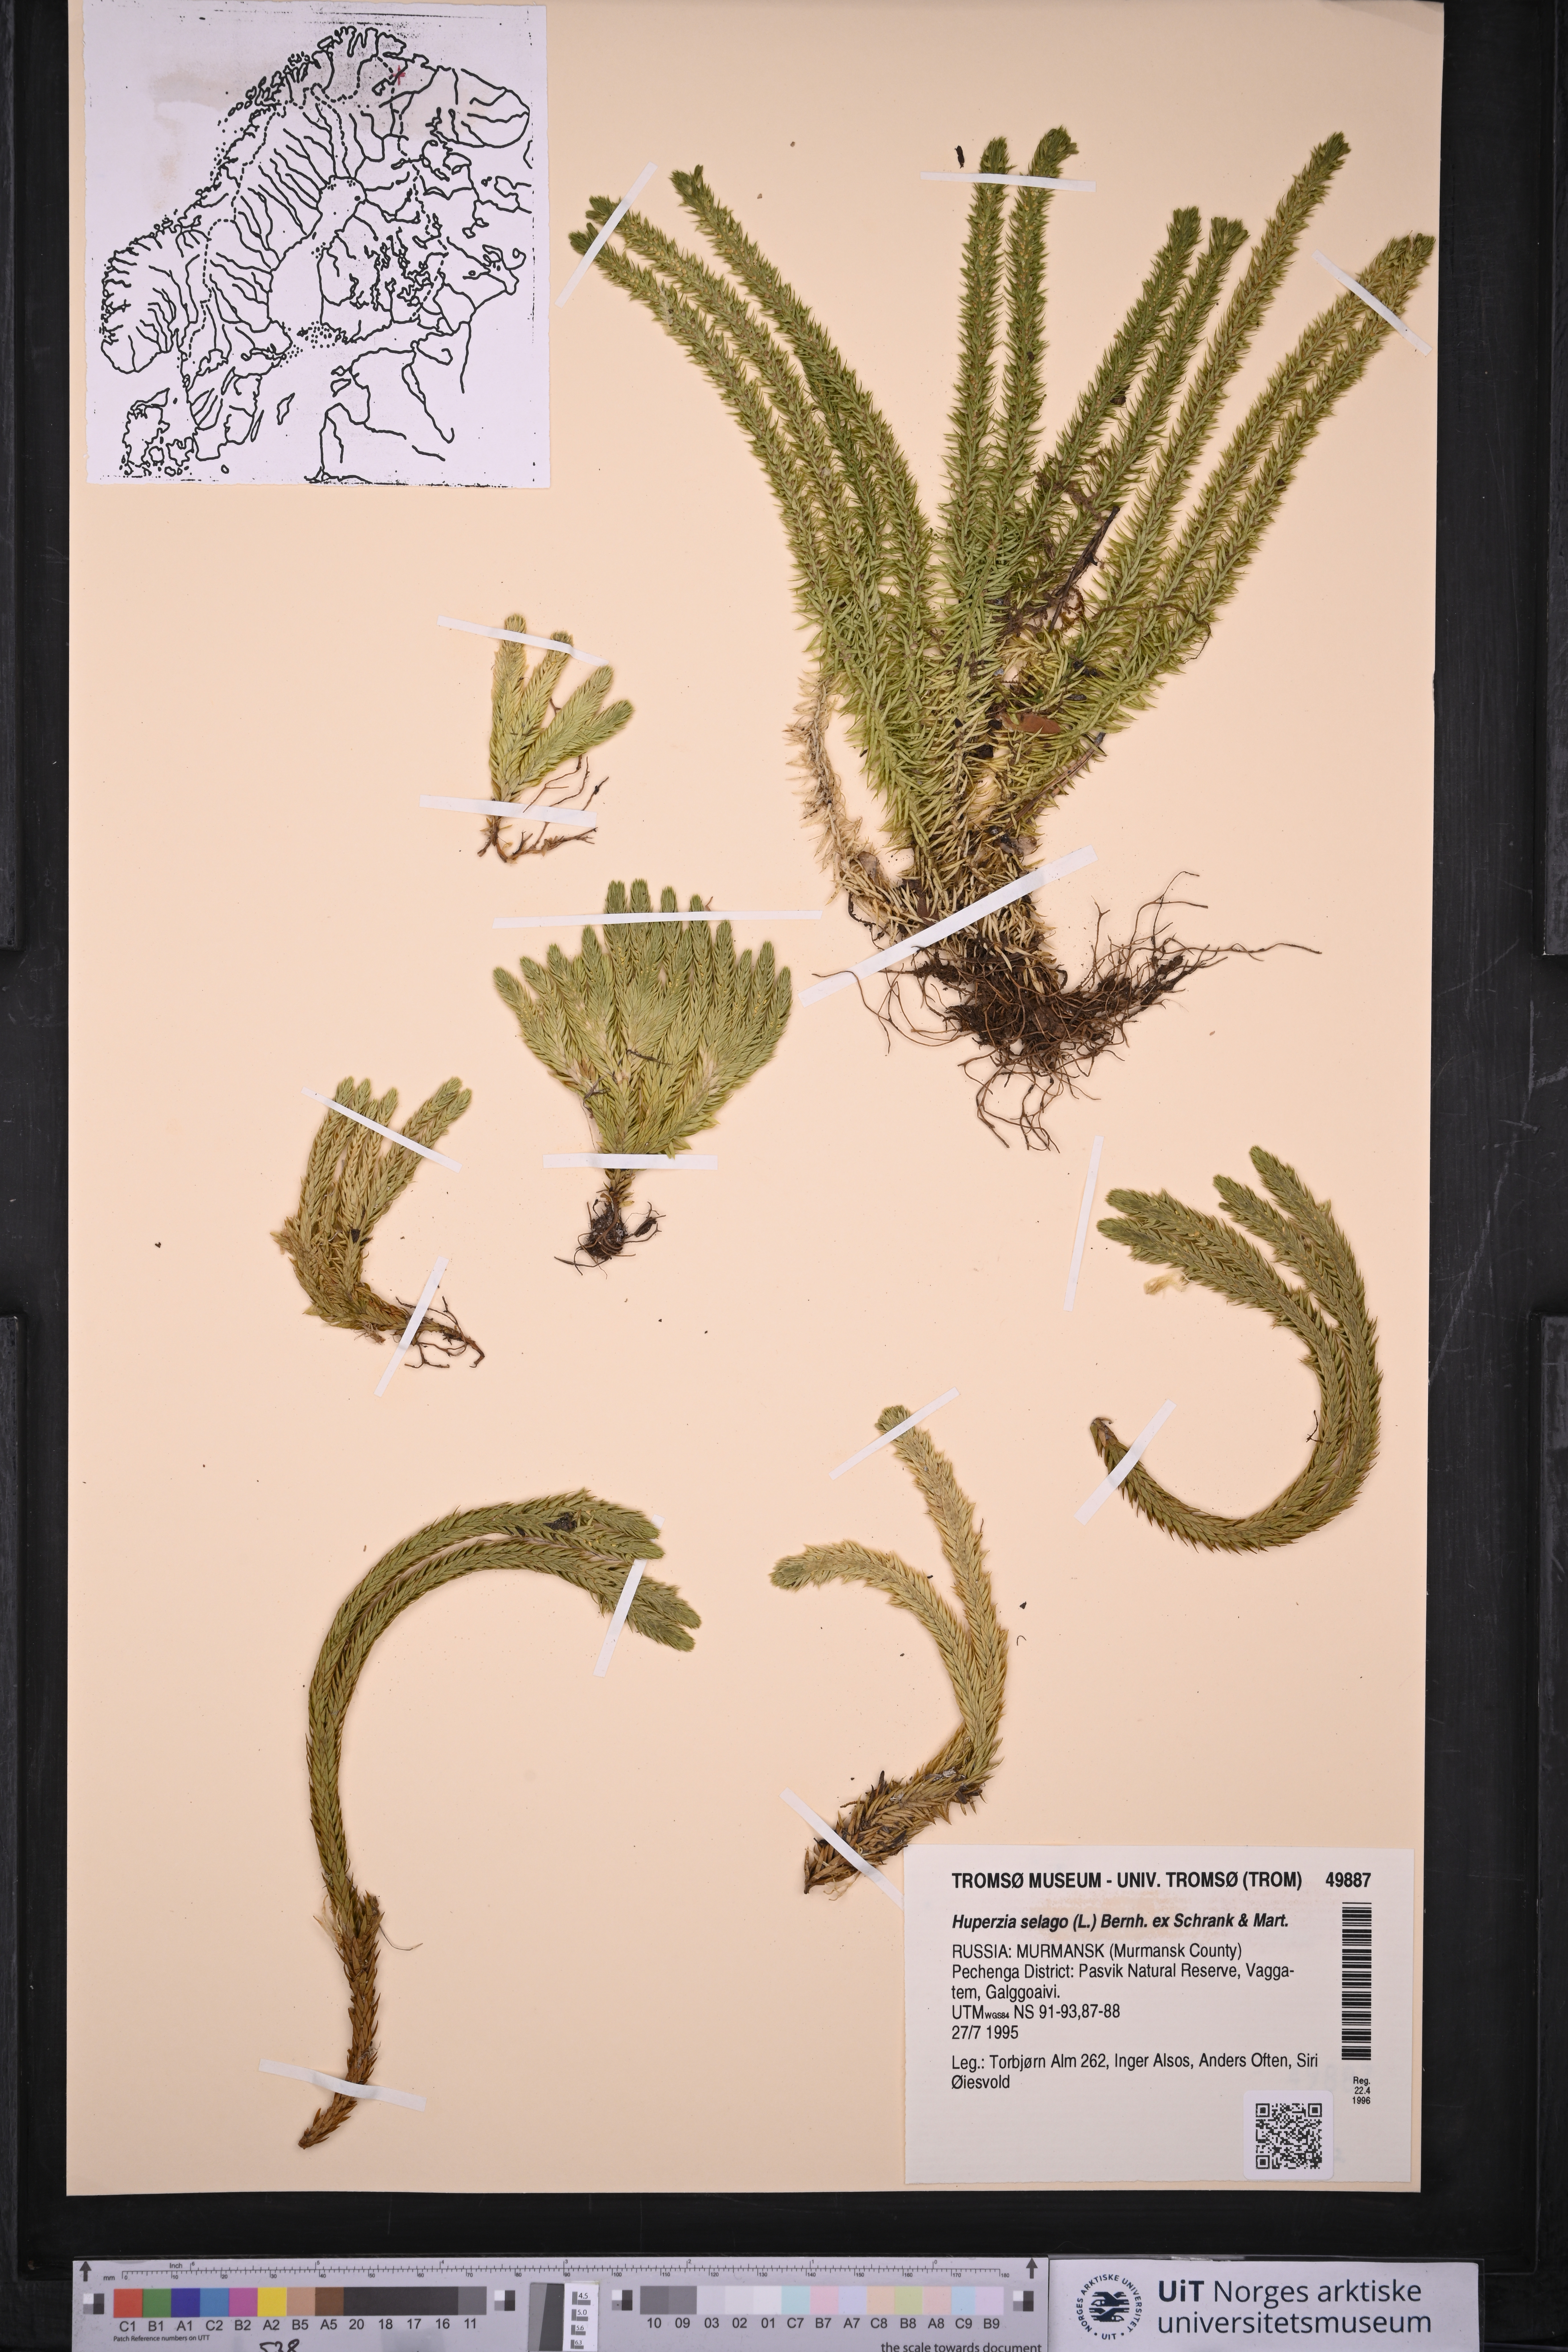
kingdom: Plantae
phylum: Tracheophyta
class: Lycopodiopsida
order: Lycopodiales
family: Lycopodiaceae
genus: Huperzia
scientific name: Huperzia selago
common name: Northern firmoss
